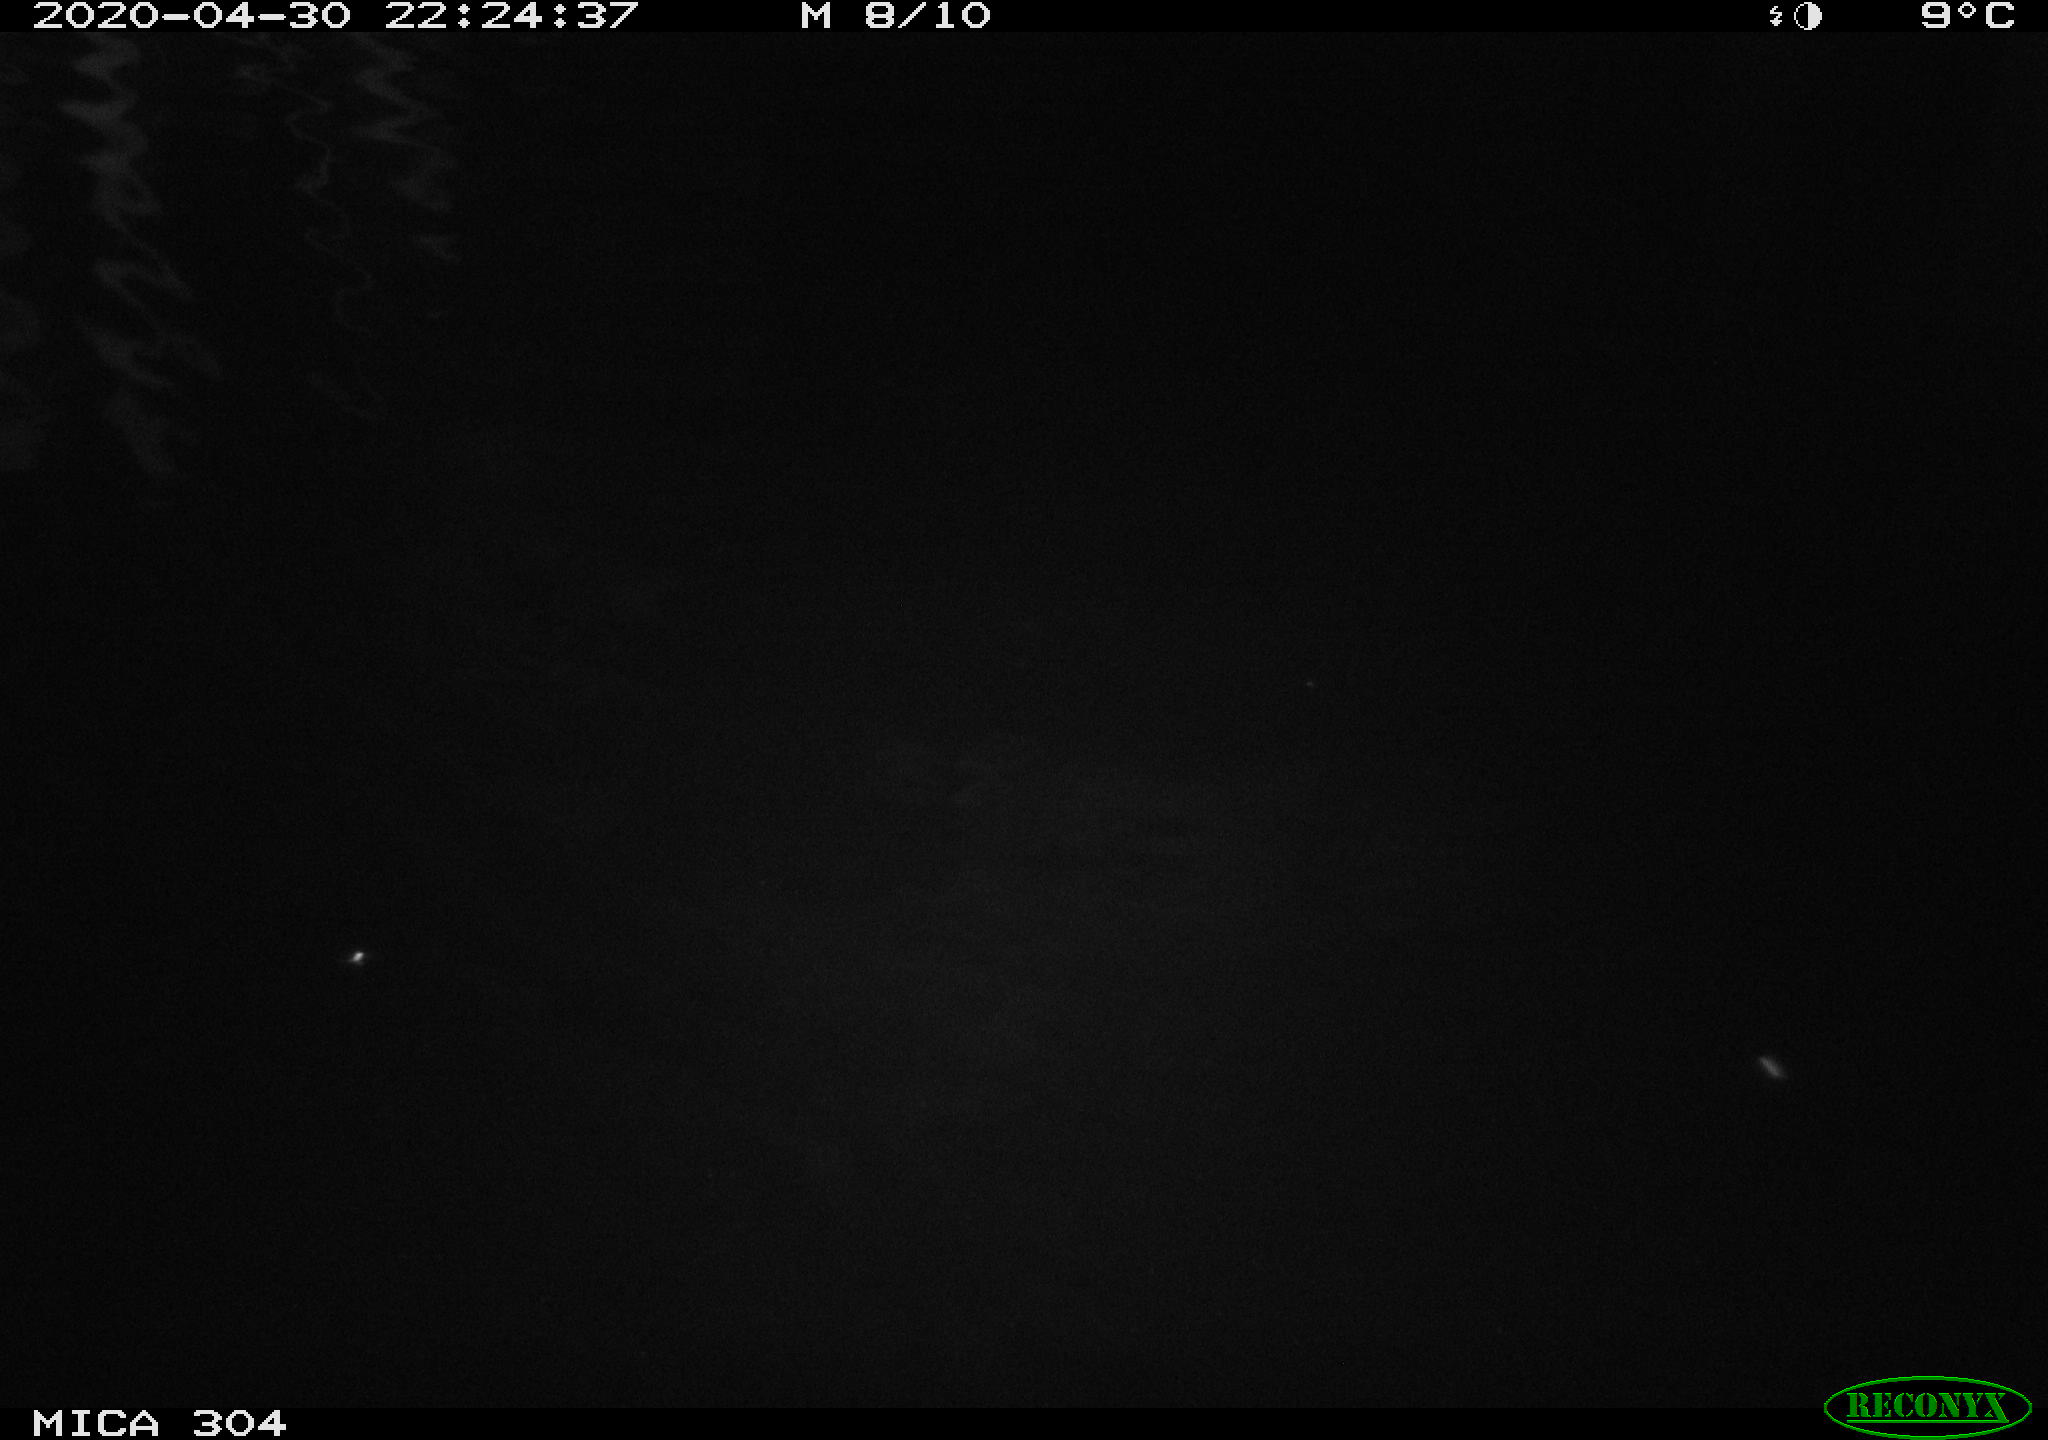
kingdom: Animalia
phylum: Chordata
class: Aves
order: Anseriformes
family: Anatidae
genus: Anas
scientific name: Anas platyrhynchos
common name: Mallard
